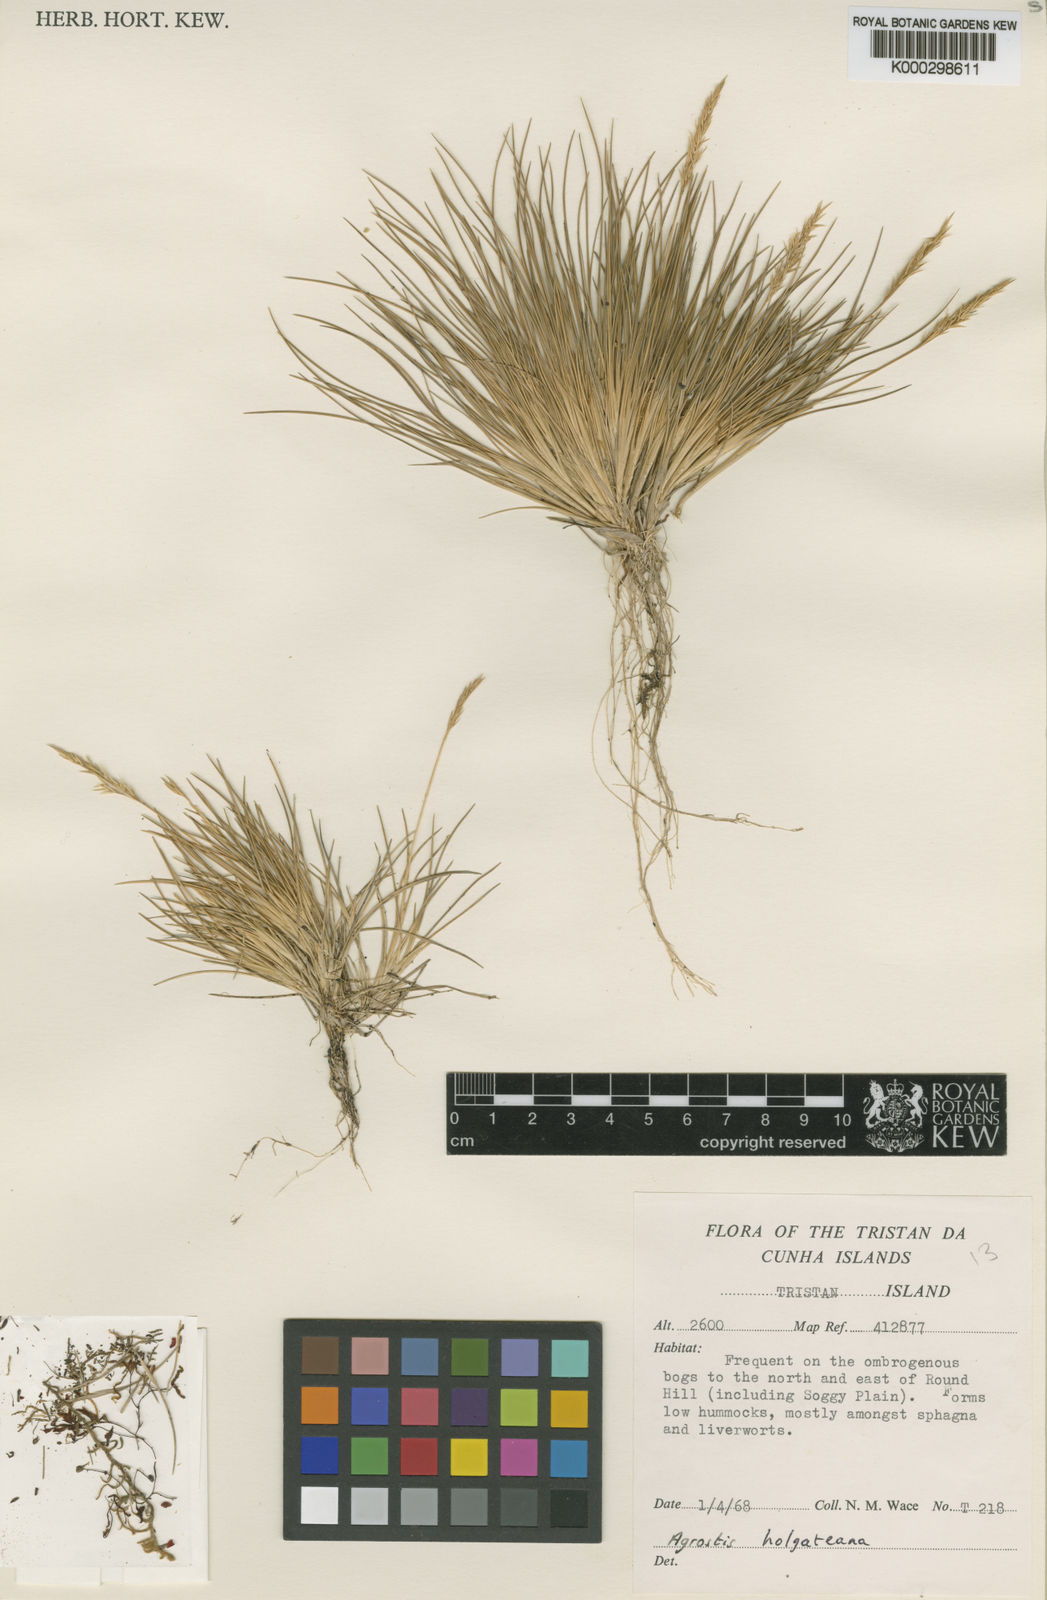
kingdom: Plantae
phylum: Tracheophyta
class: Liliopsida
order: Poales
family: Poaceae
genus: Agrostis
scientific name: Agrostis holgateana
